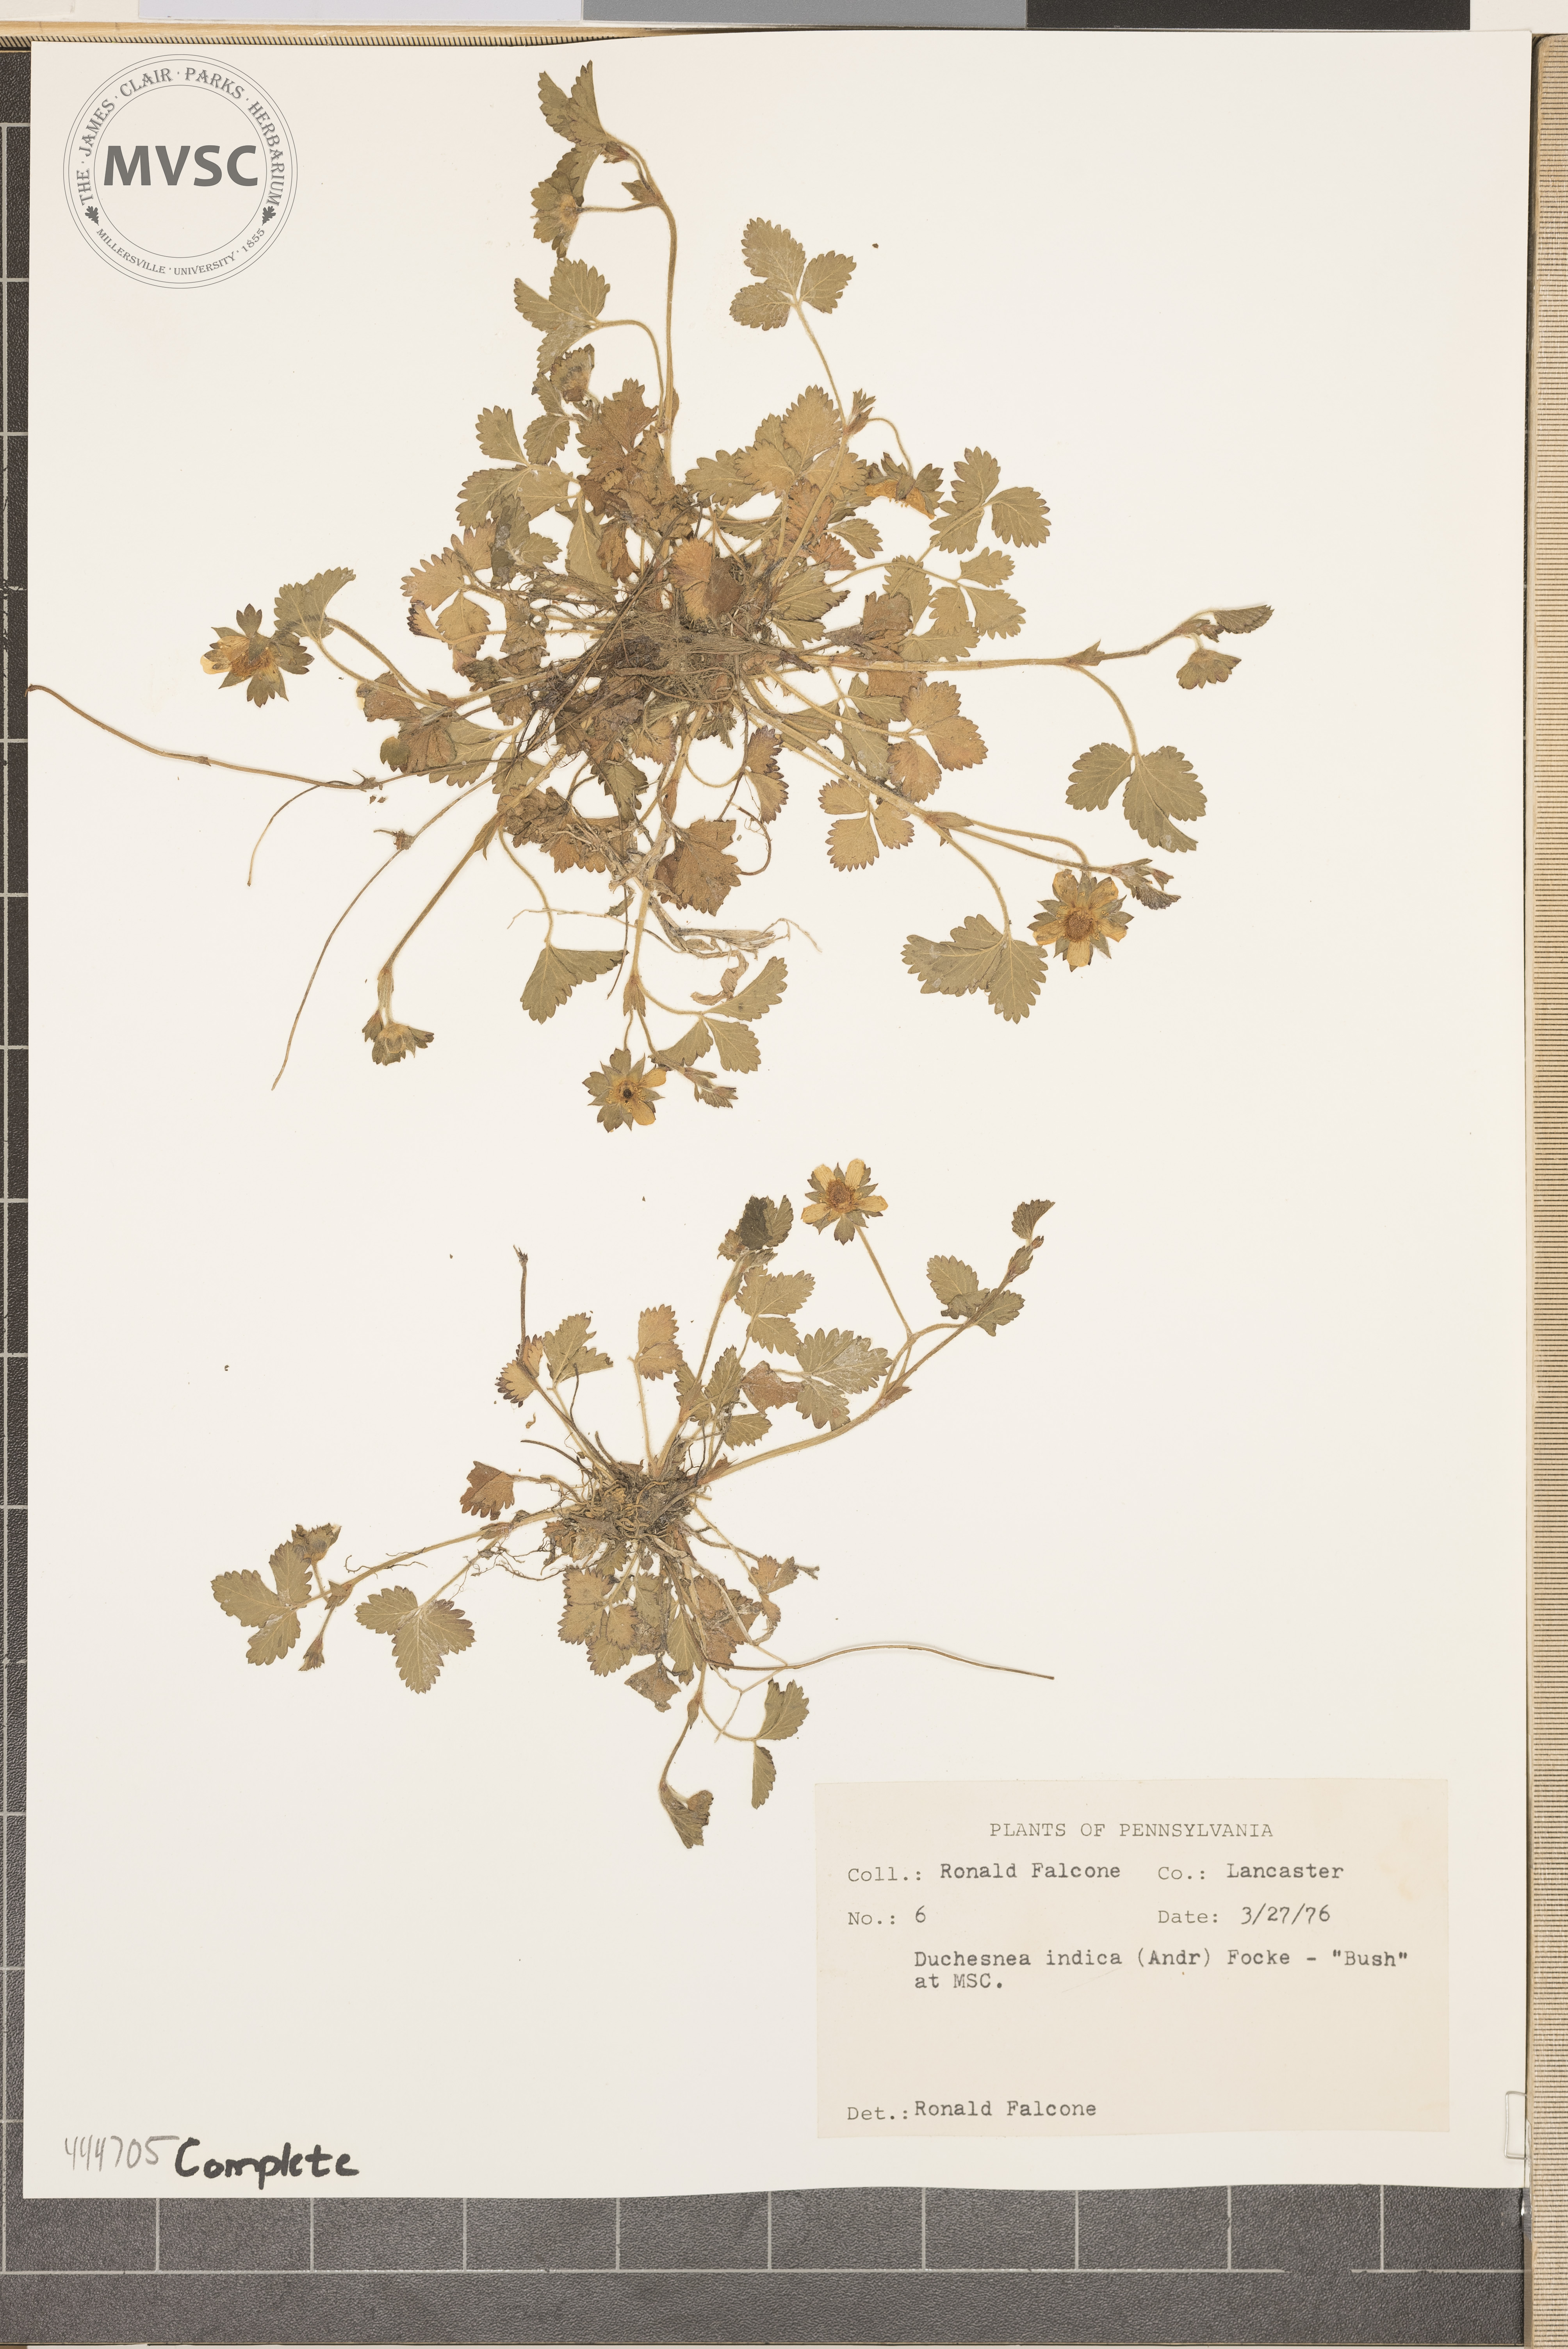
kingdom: Plantae
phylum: Tracheophyta
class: Magnoliopsida
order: Rosales
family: Rosaceae
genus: Potentilla
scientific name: Potentilla indica
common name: Yellow-flowered strawberry
